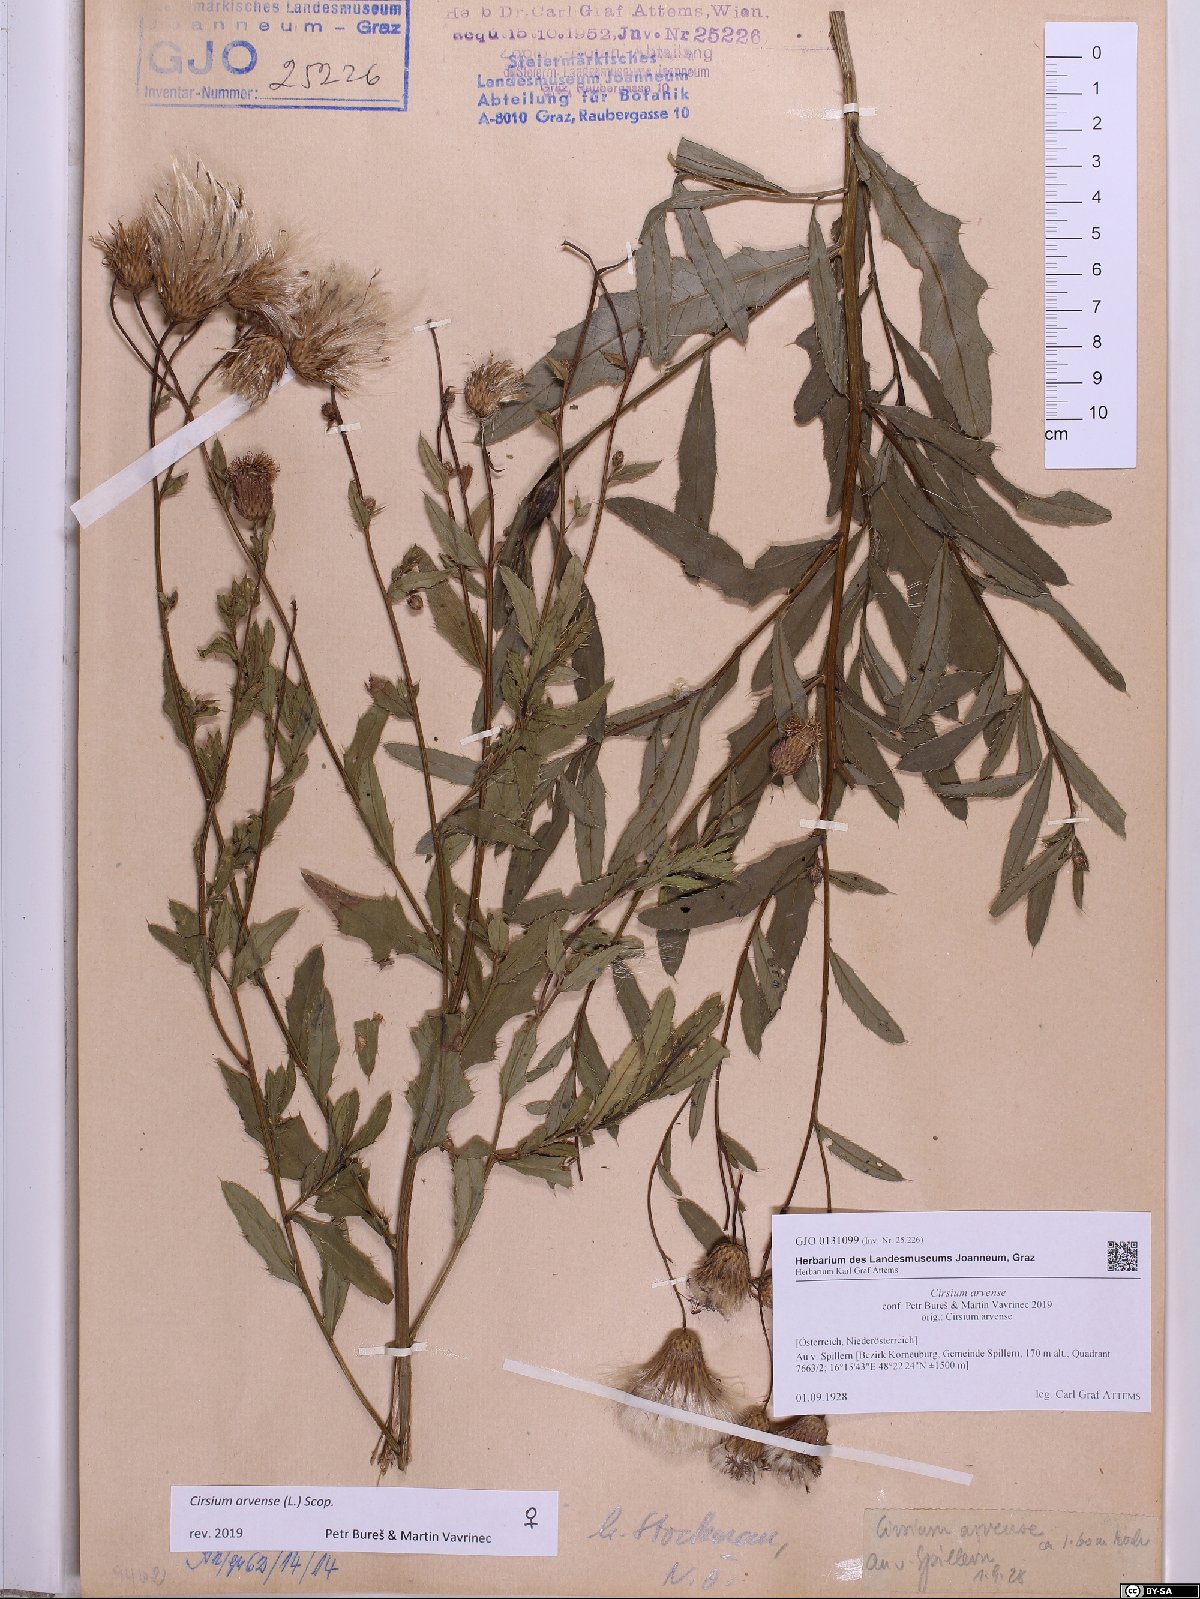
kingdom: Plantae
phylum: Tracheophyta
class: Magnoliopsida
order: Asterales
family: Asteraceae
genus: Cirsium
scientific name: Cirsium arvense
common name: Creeping thistle
